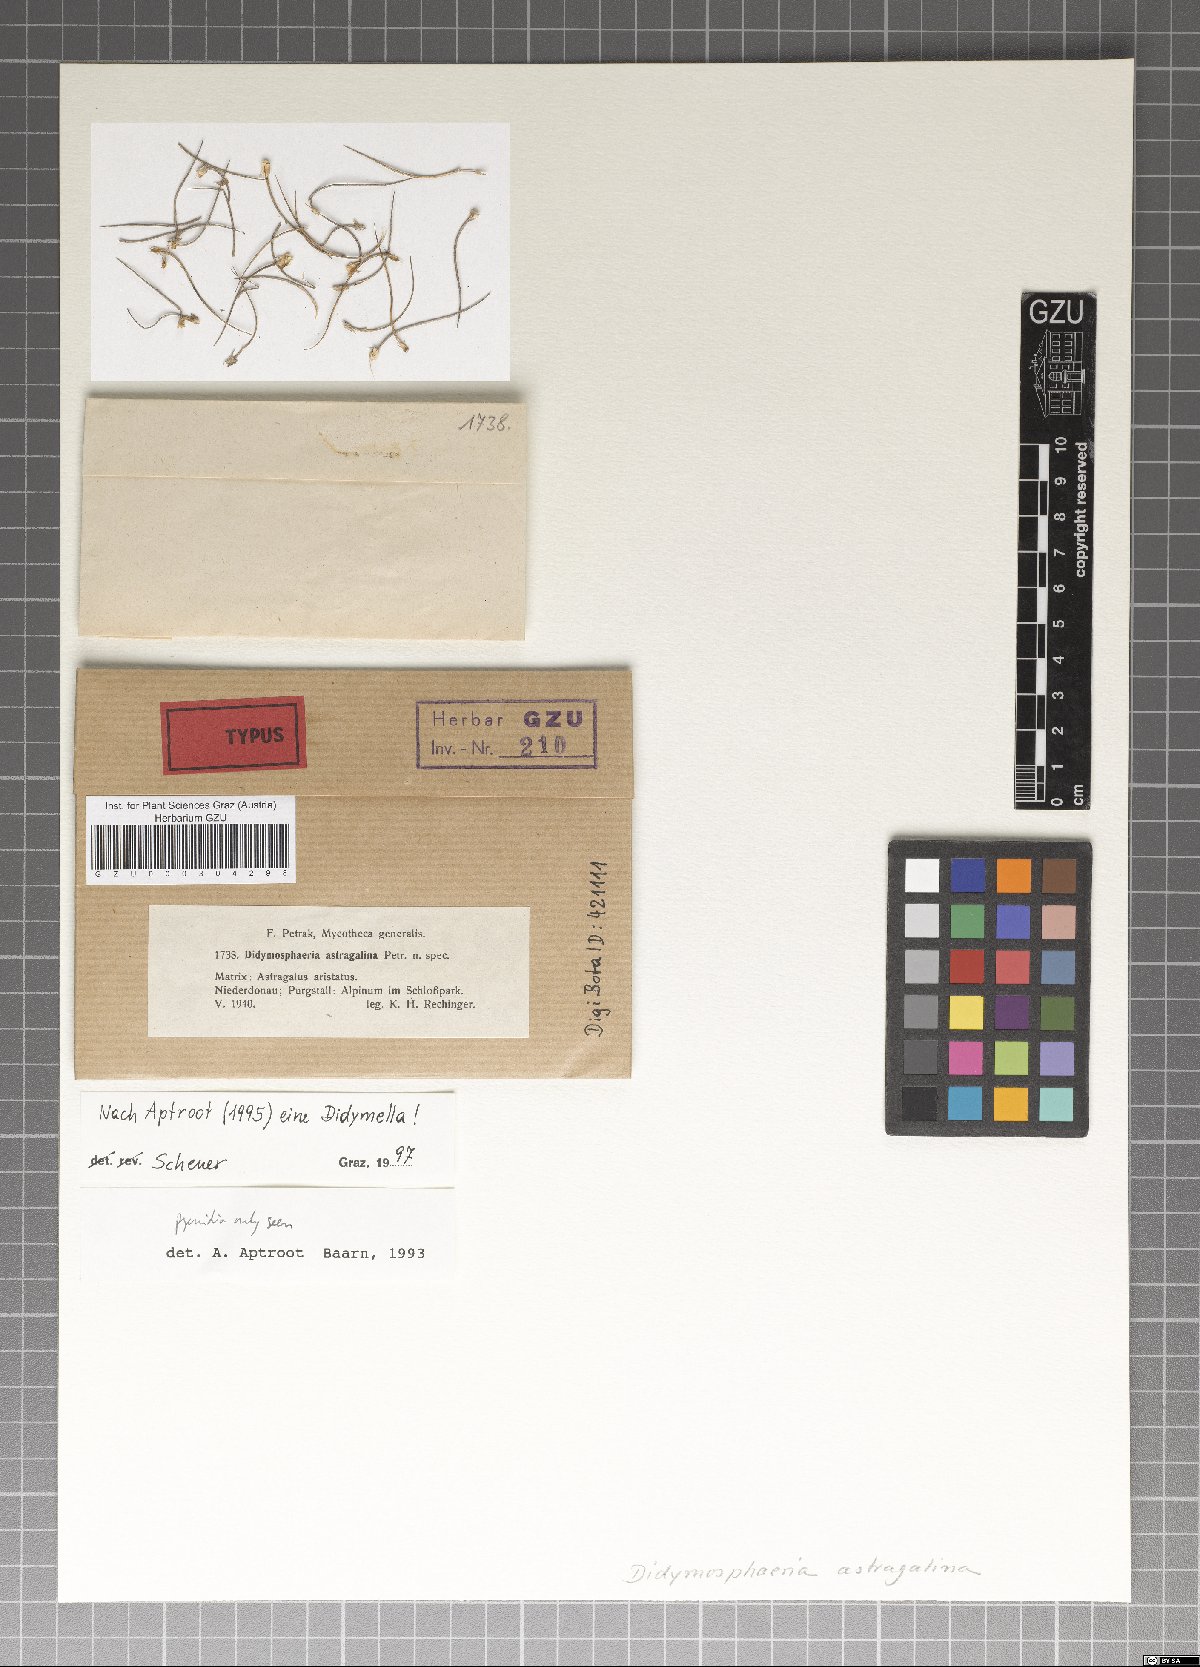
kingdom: Fungi
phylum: Ascomycota
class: Dothideomycetes
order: Pleosporales
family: Didymosphaeriaceae
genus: Didymosphaeria
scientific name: Didymosphaeria astragalina
